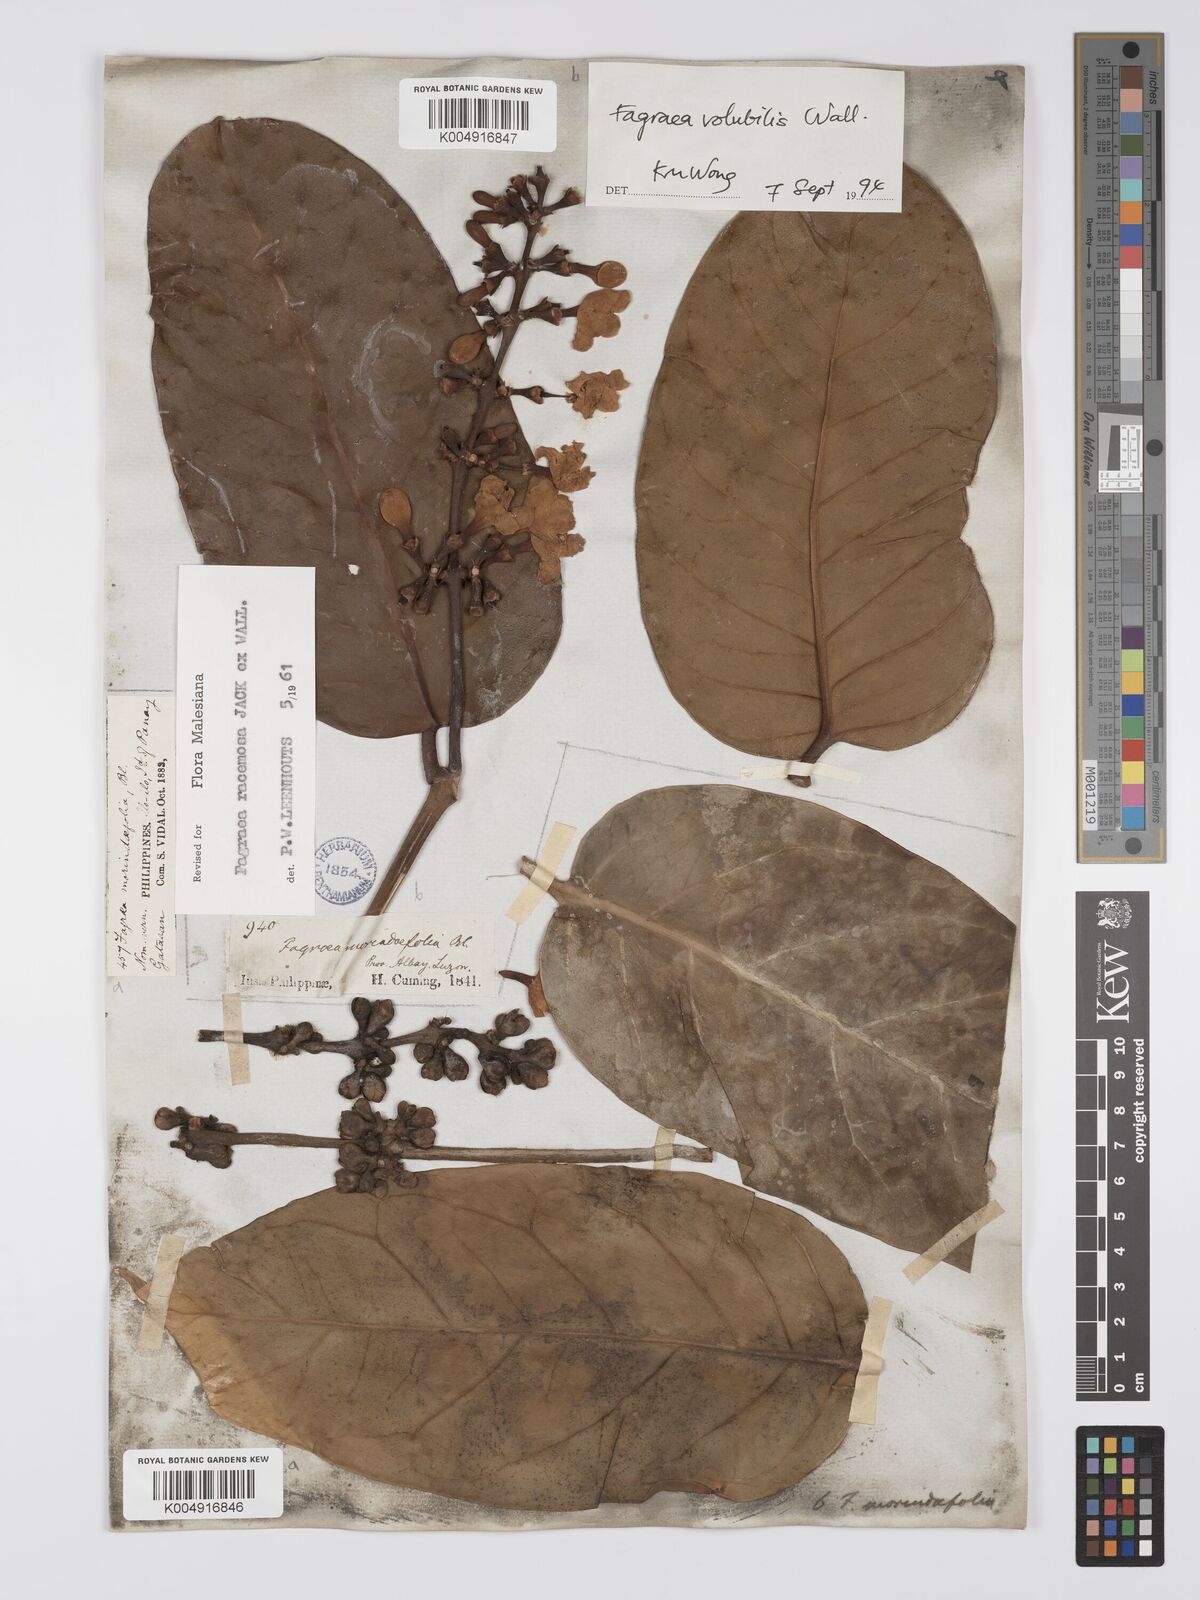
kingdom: Plantae
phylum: Tracheophyta
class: Magnoliopsida
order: Gentianales
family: Gentianaceae
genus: Utania
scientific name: Utania racemosa
